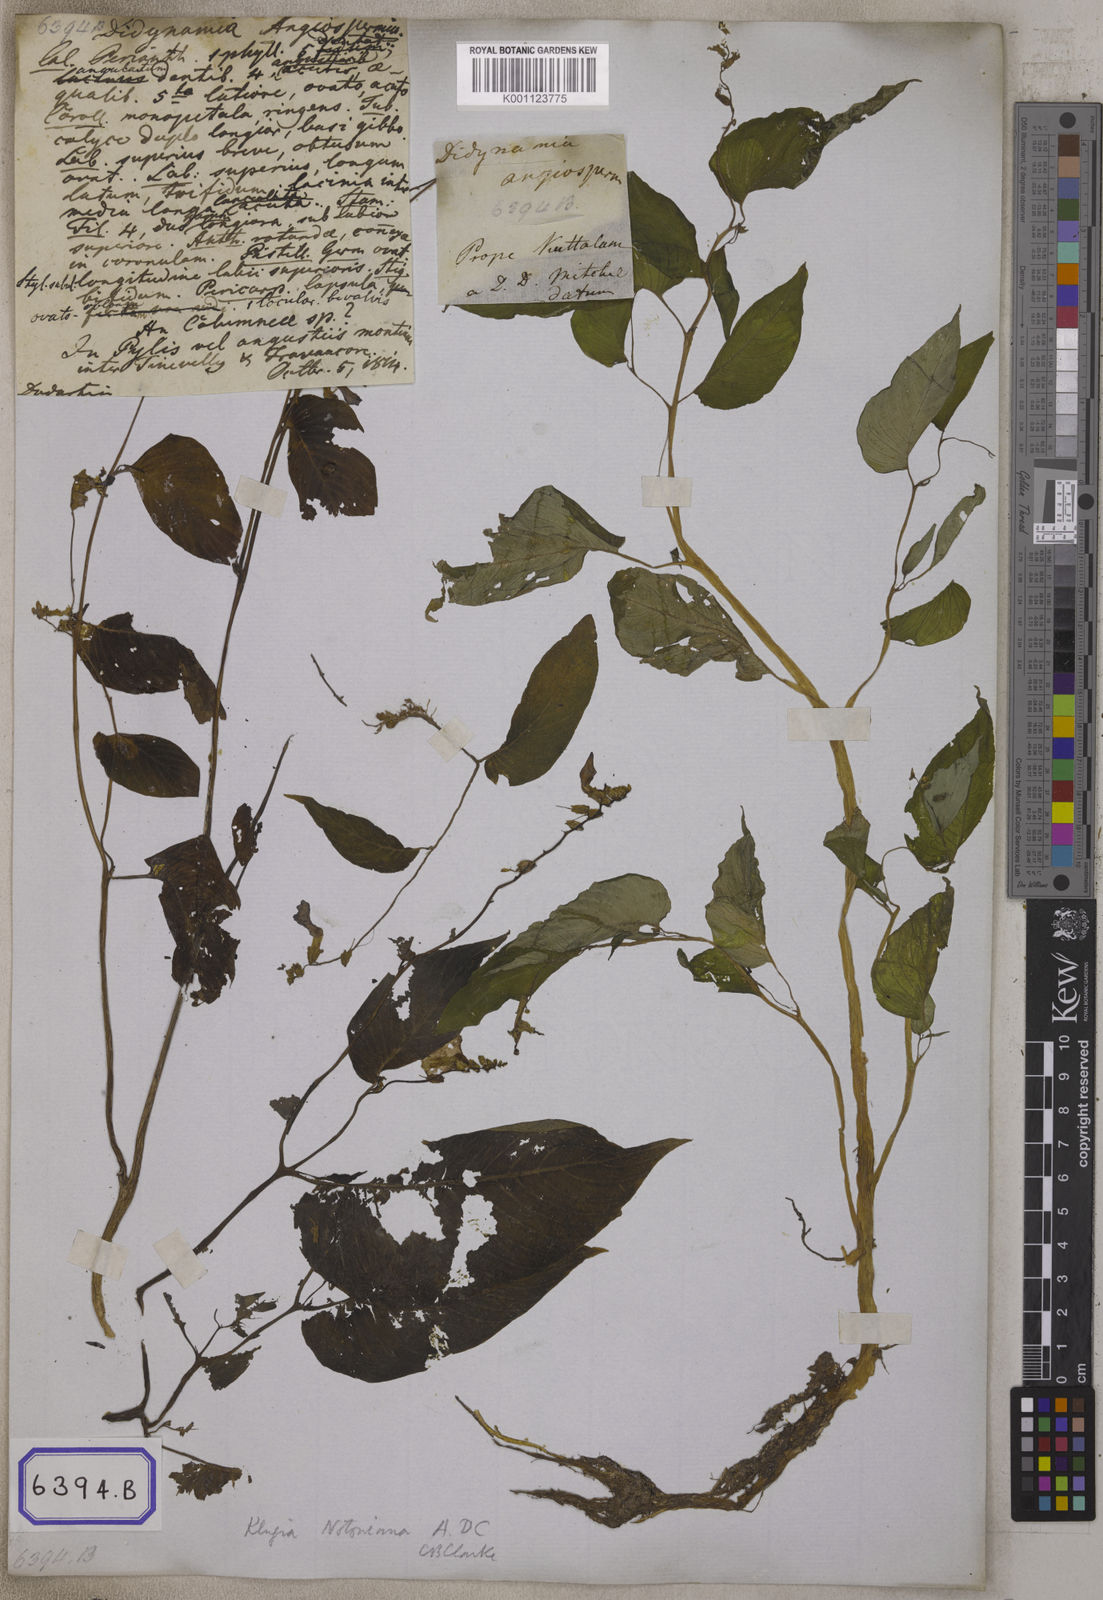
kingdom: Plantae
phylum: Tracheophyta
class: Magnoliopsida
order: Lamiales
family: Gesneriaceae
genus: Rhynchoglossum
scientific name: Rhynchoglossum notonianum
